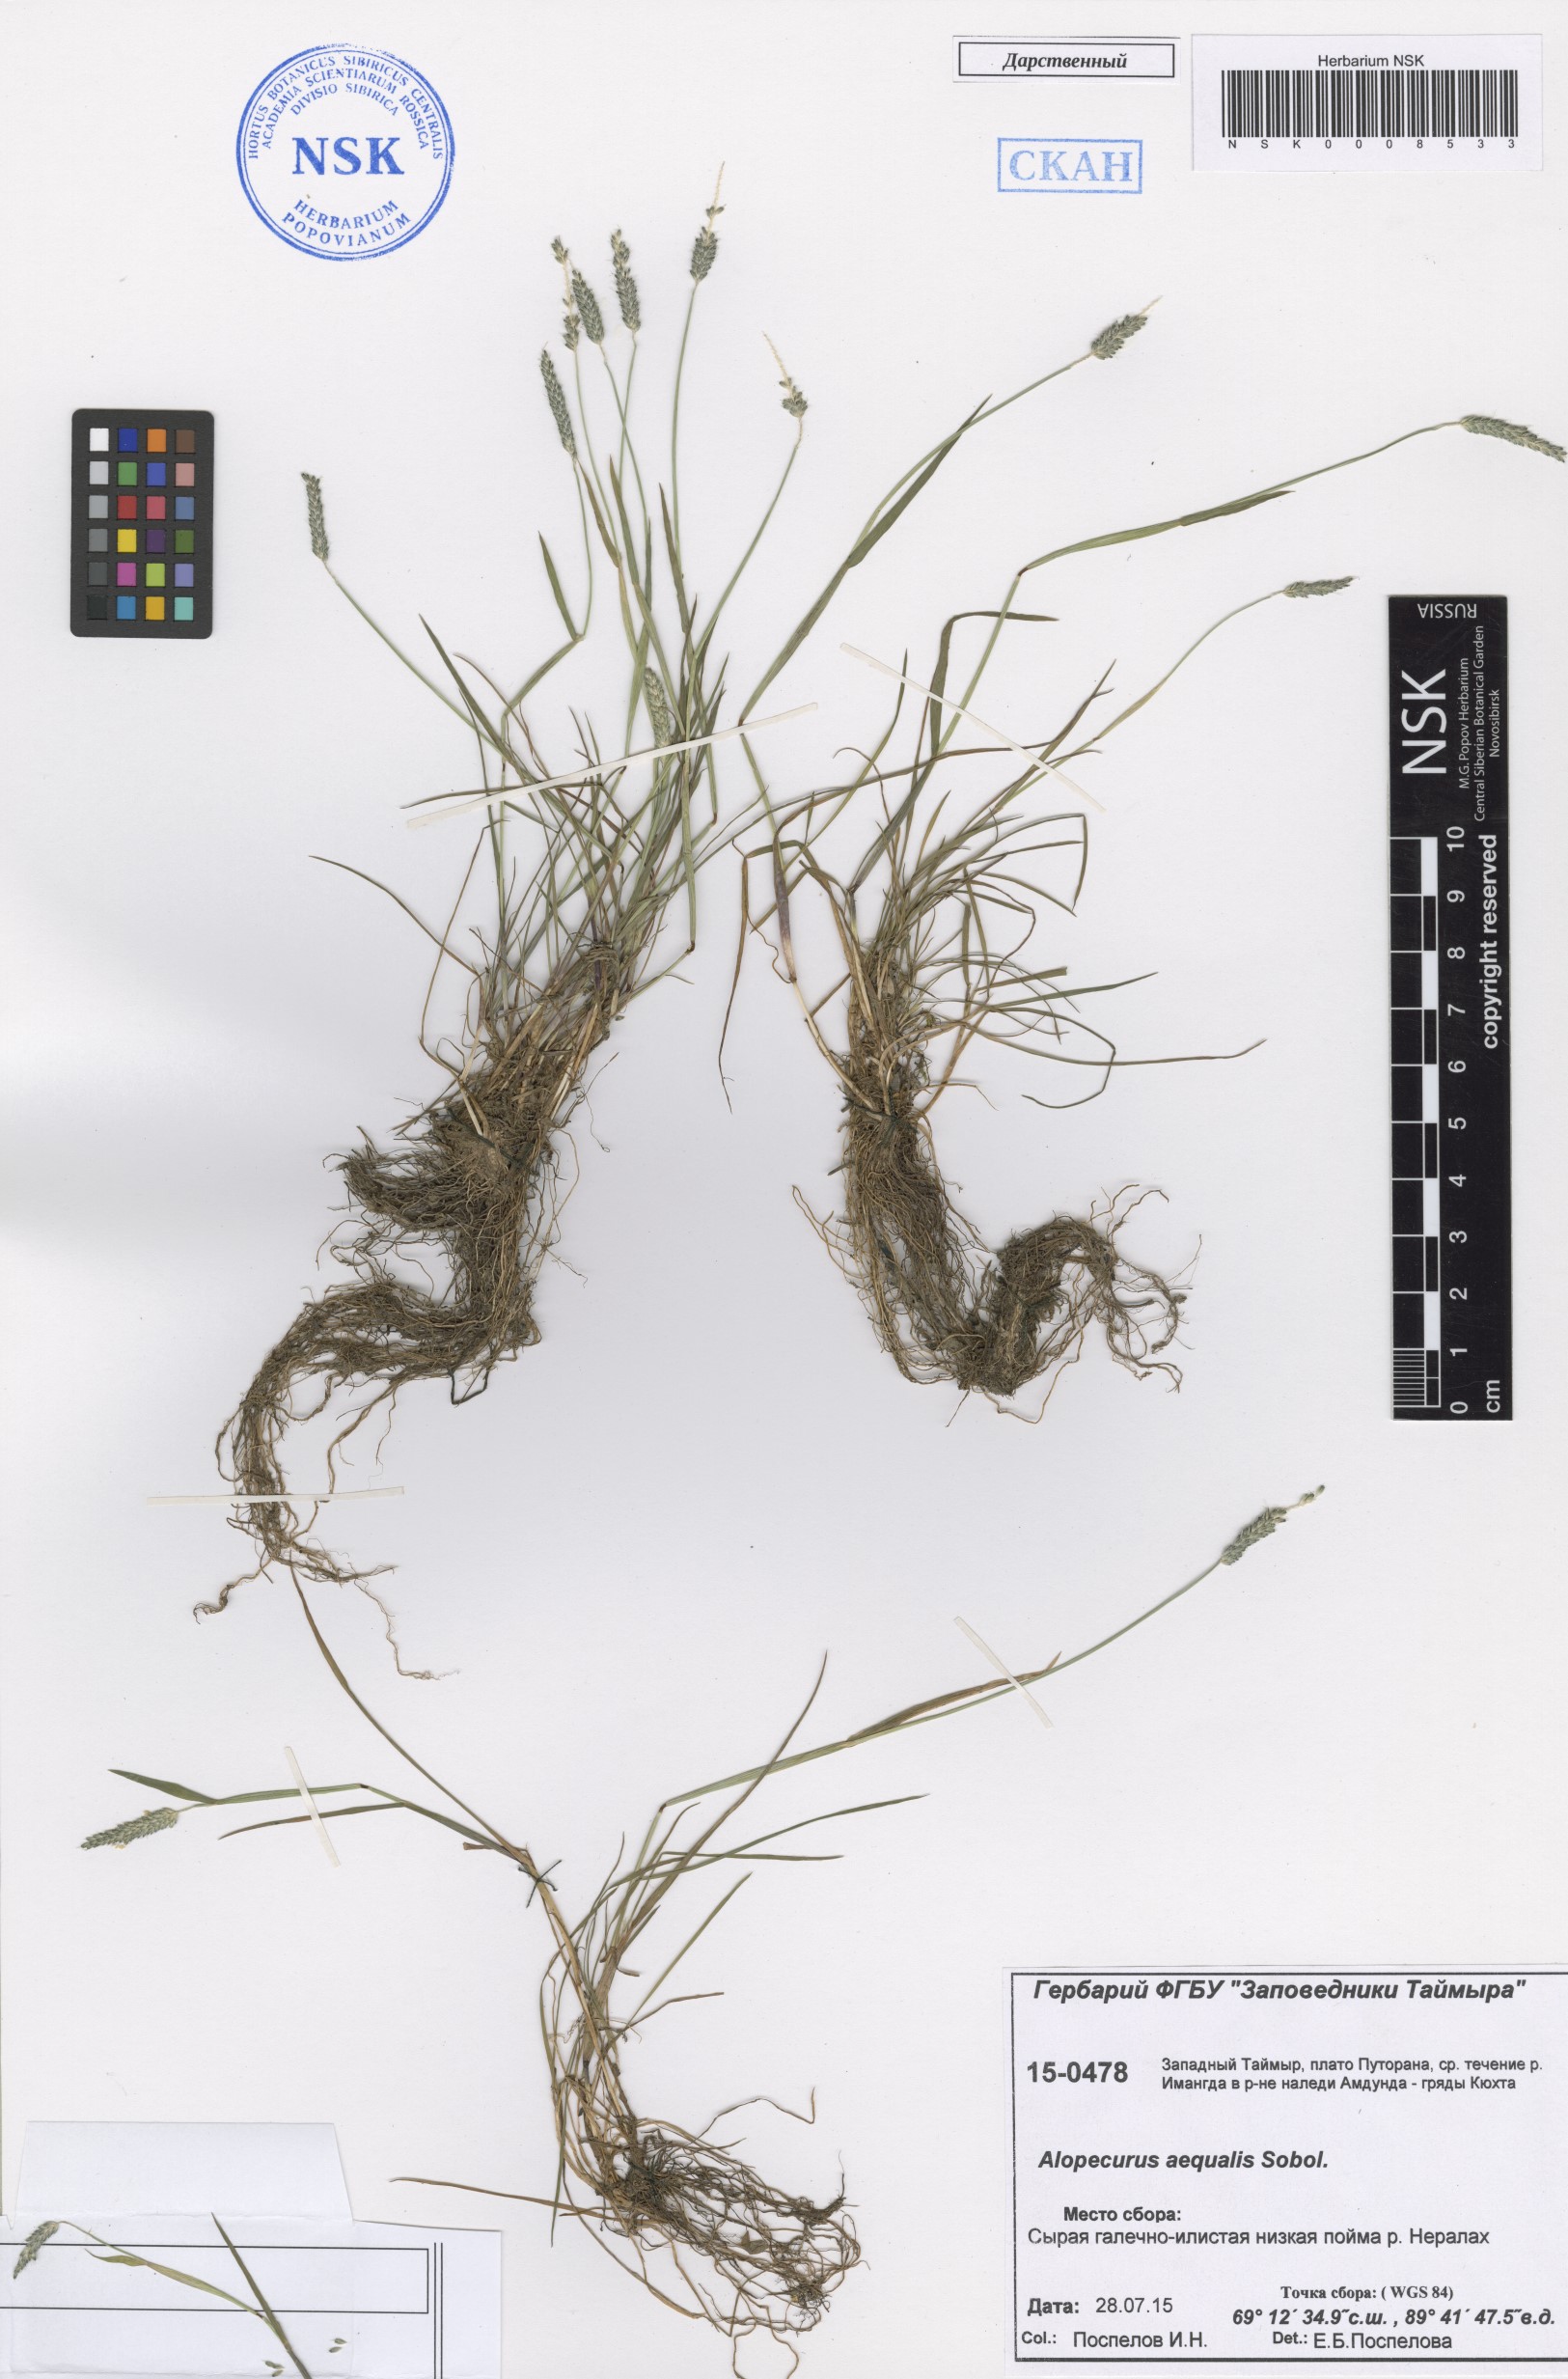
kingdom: Plantae
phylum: Tracheophyta
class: Liliopsida
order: Poales
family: Poaceae
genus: Alopecurus
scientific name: Alopecurus aequalis
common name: Orange foxtail
